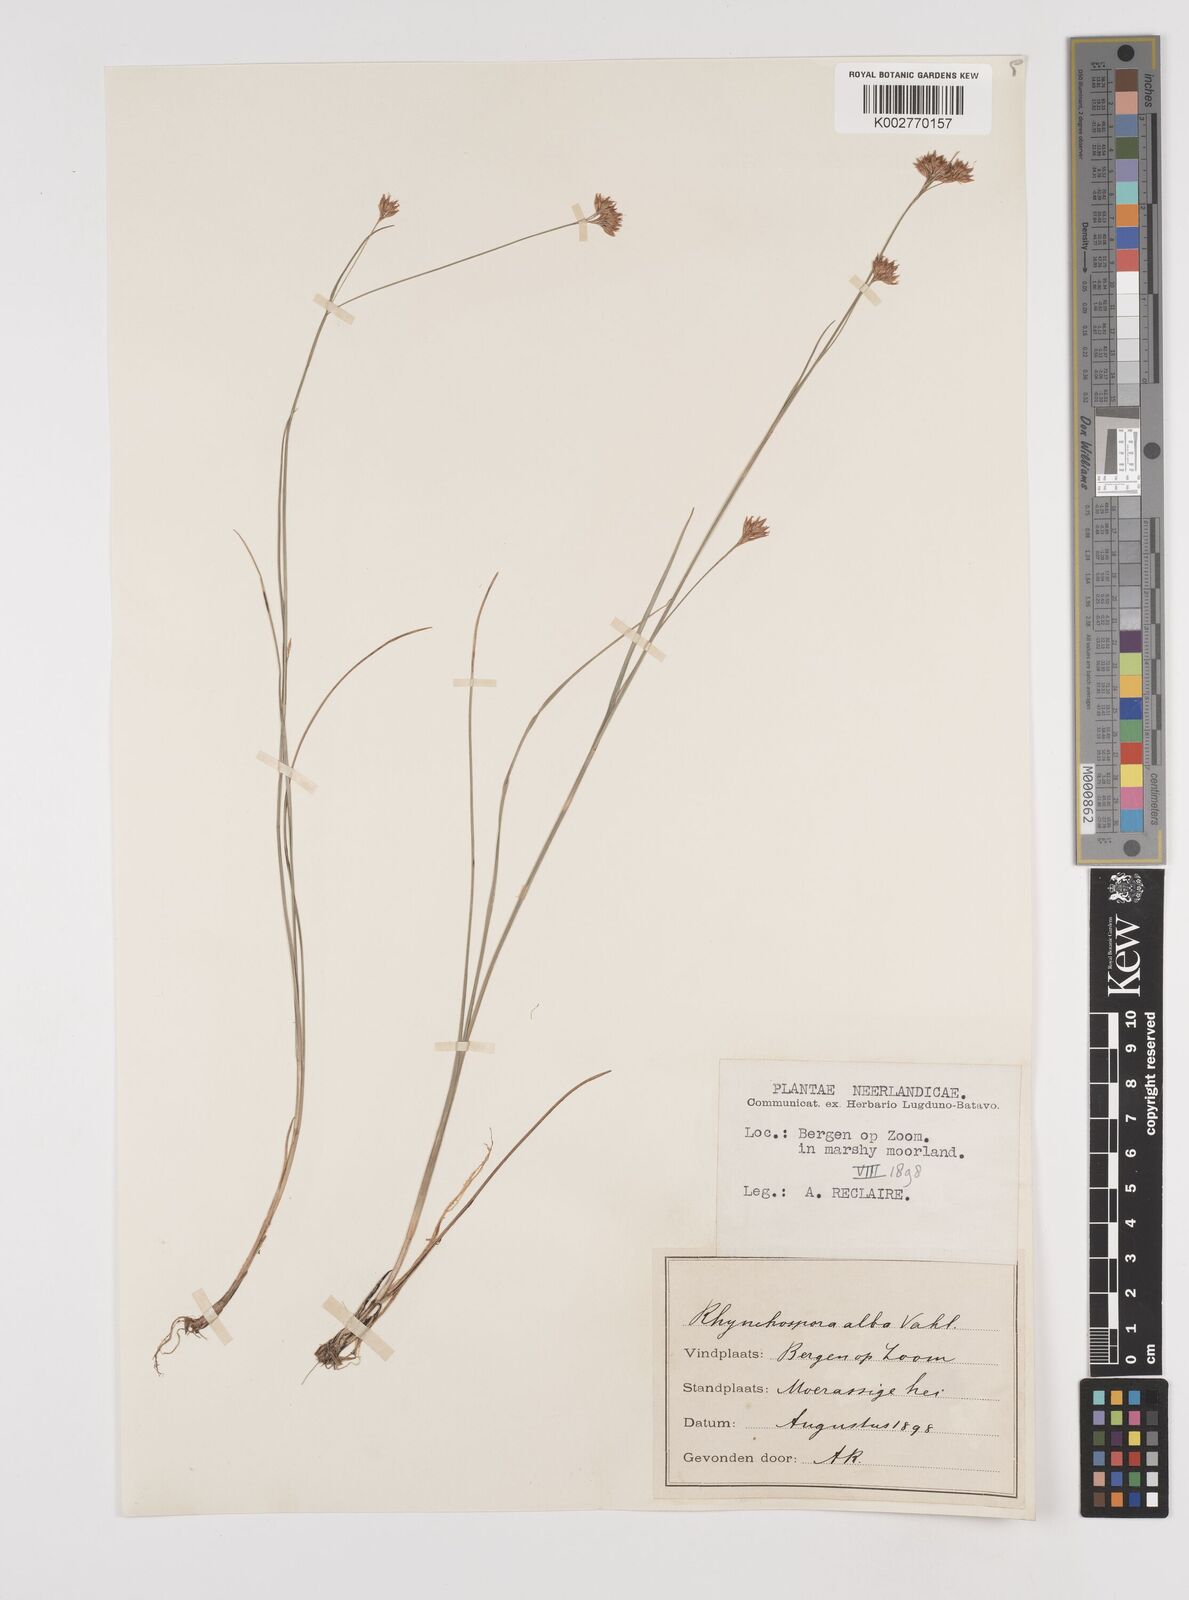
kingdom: Plantae
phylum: Tracheophyta
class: Liliopsida
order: Poales
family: Cyperaceae
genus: Rhynchospora
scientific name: Rhynchospora alba
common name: White beak-sedge
